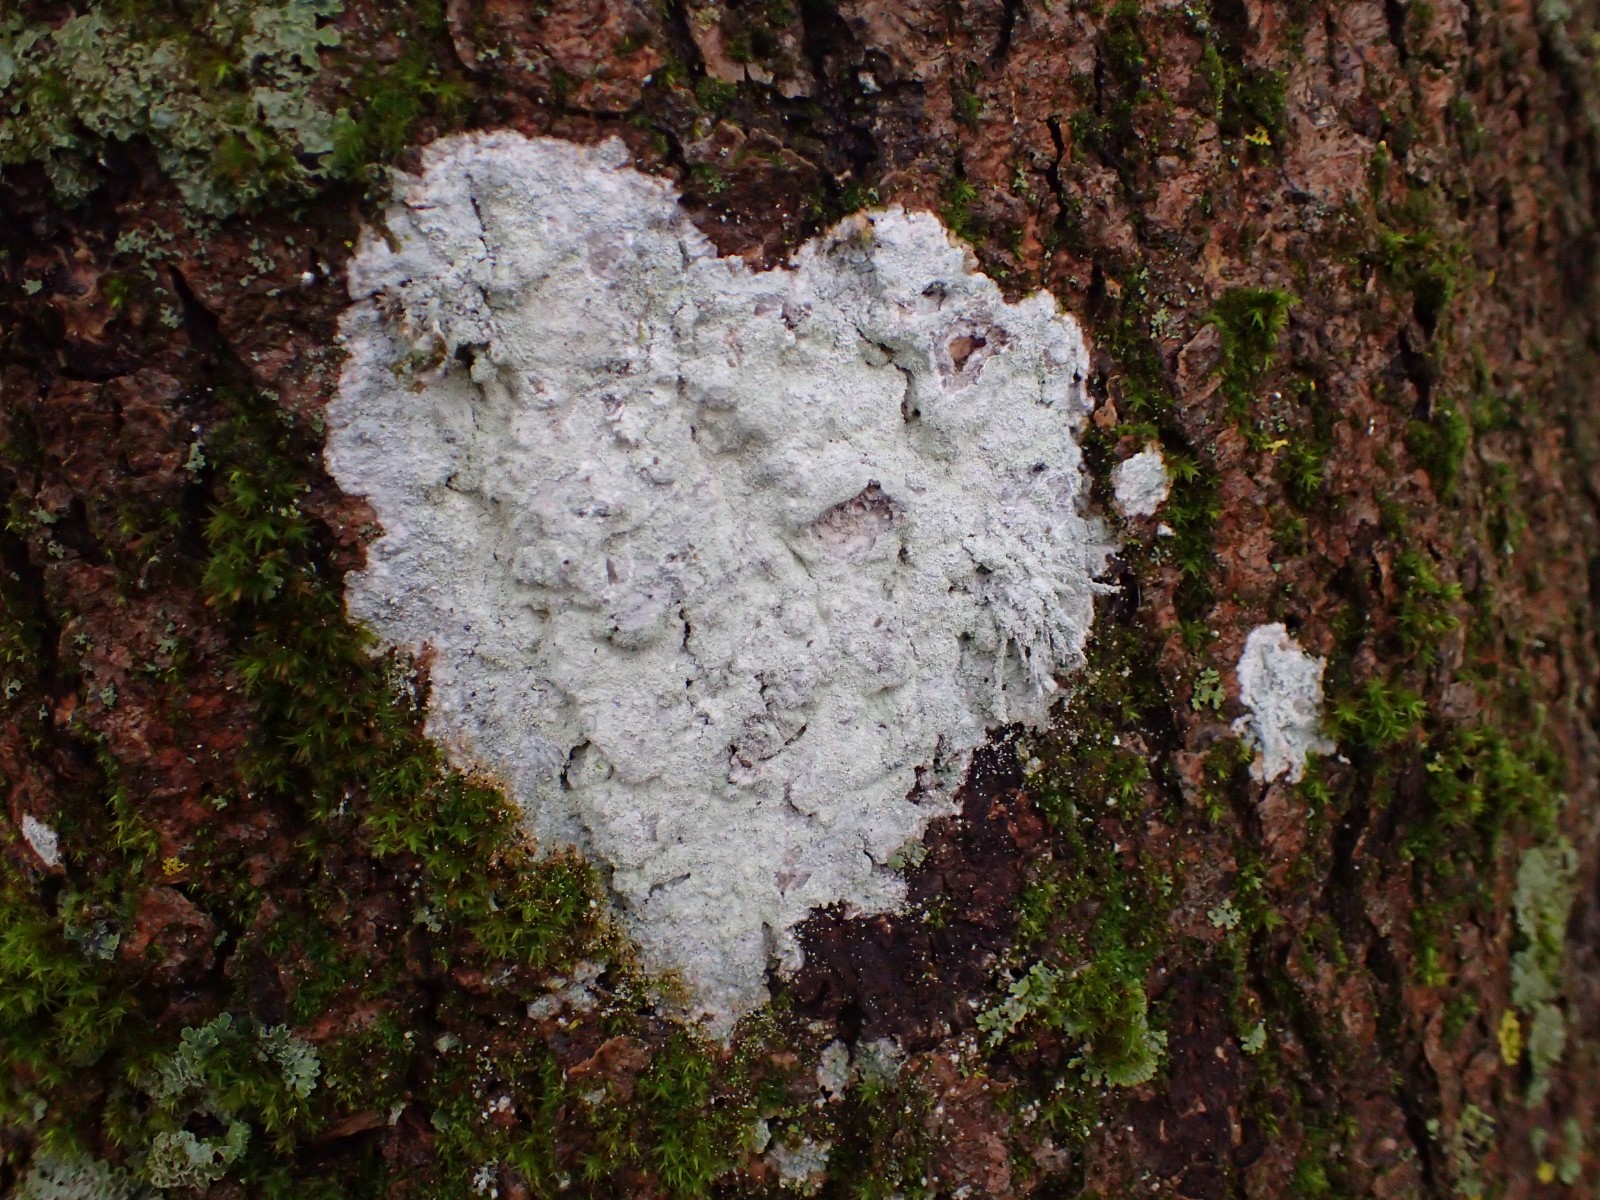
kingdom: Fungi
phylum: Ascomycota
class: Lecanoromycetes
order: Ostropales
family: Phlyctidaceae
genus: Phlyctis
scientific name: Phlyctis argena
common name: almindelig sølvlav
